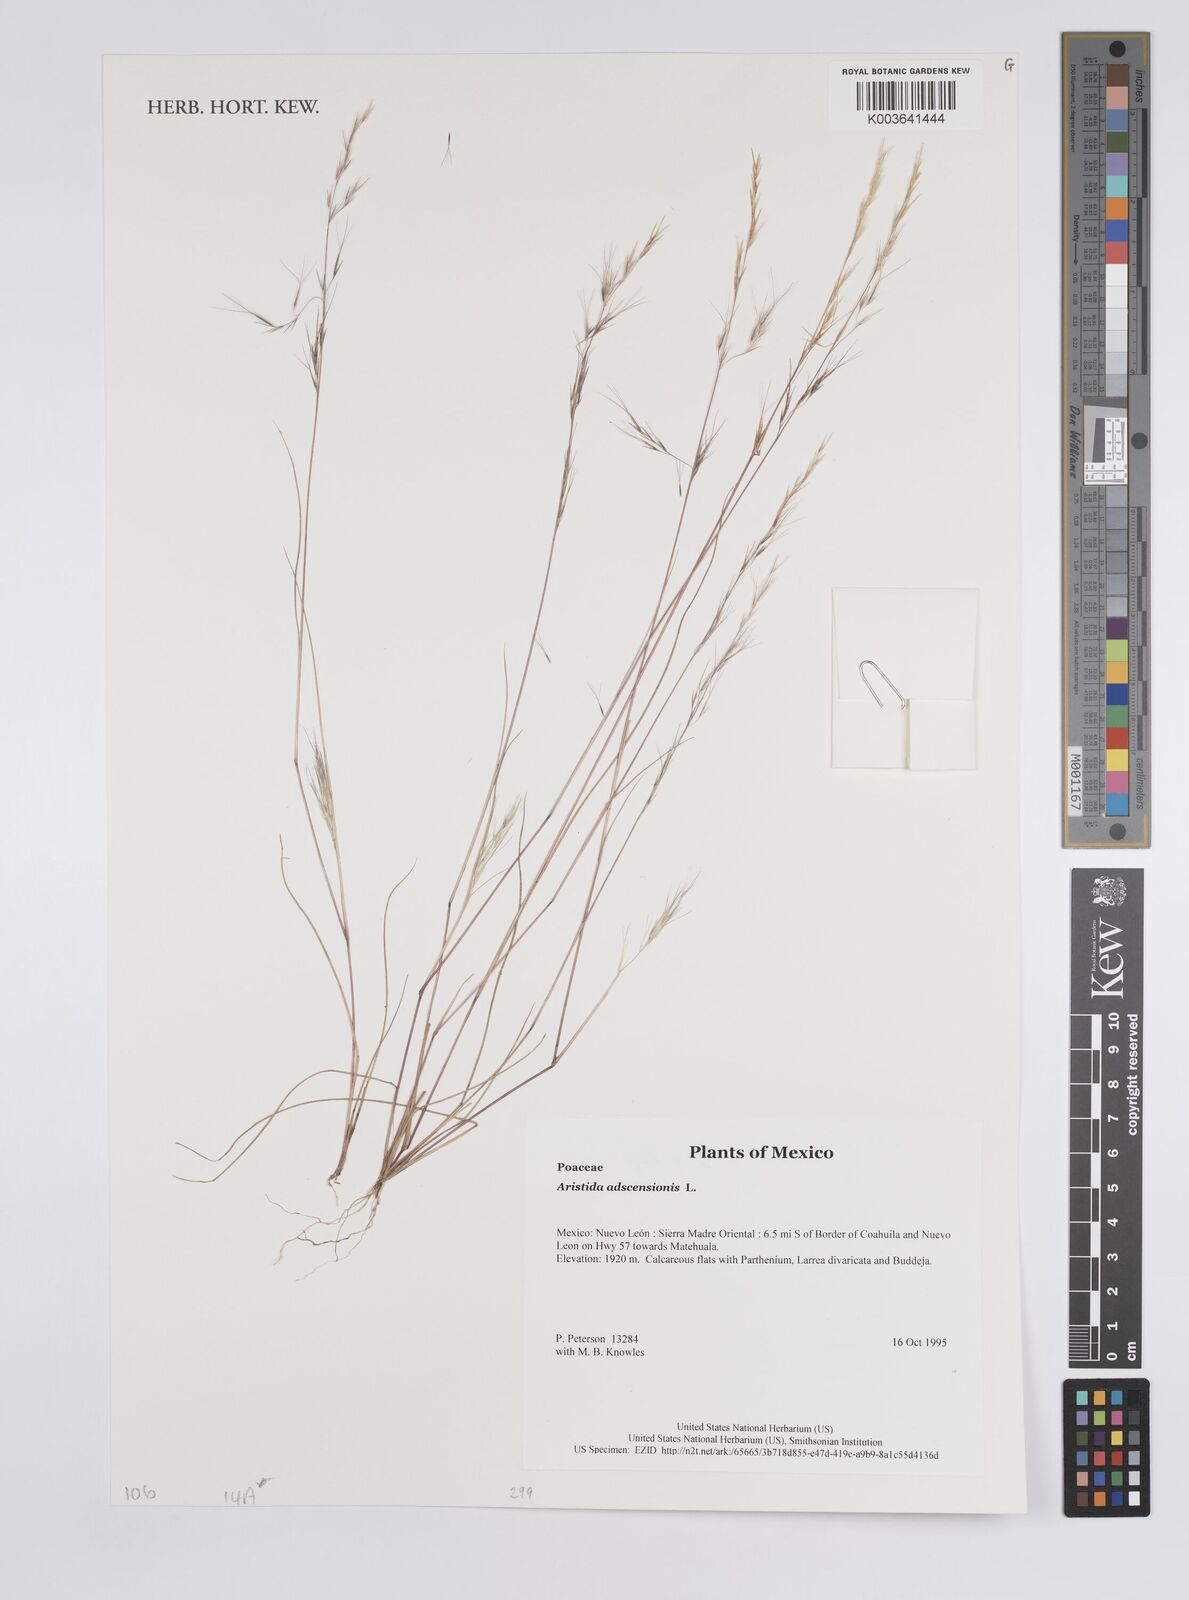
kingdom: Plantae
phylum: Tracheophyta
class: Liliopsida
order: Poales
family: Poaceae
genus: Aristida
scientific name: Aristida adscensionis
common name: Sixweeks threeawn
